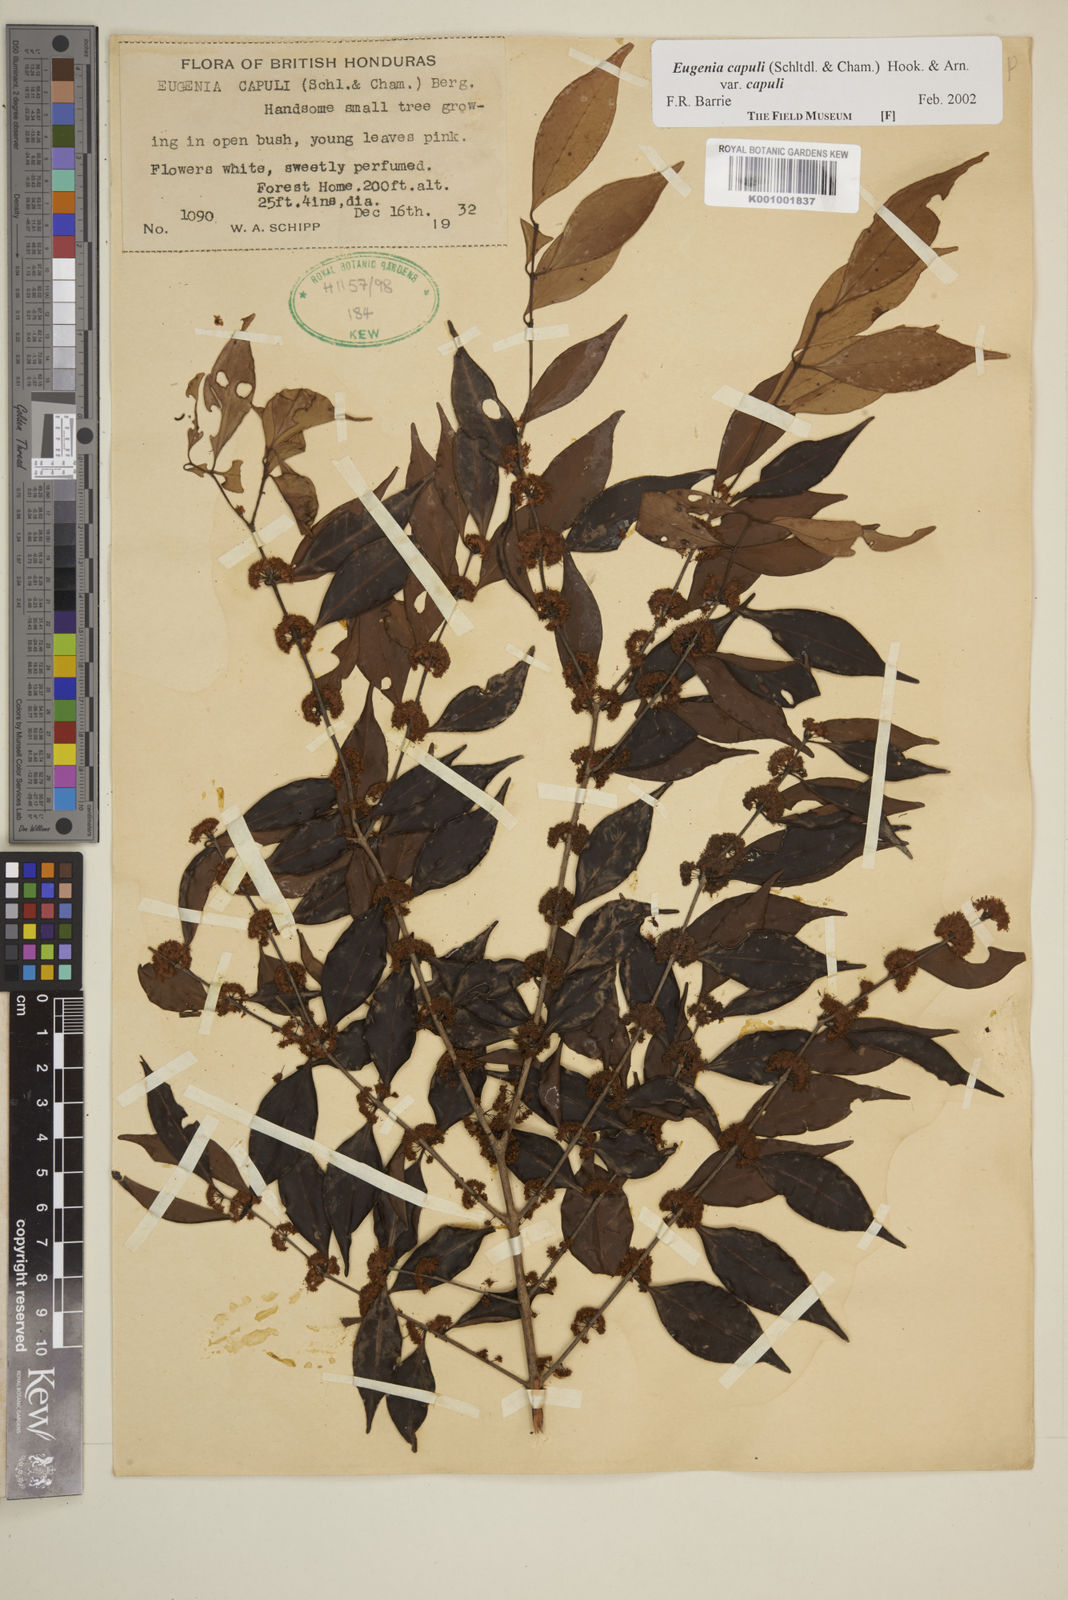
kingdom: Plantae
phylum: Tracheophyta
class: Magnoliopsida
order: Myrtales
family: Myrtaceae
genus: Eugenia
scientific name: Eugenia capuli
